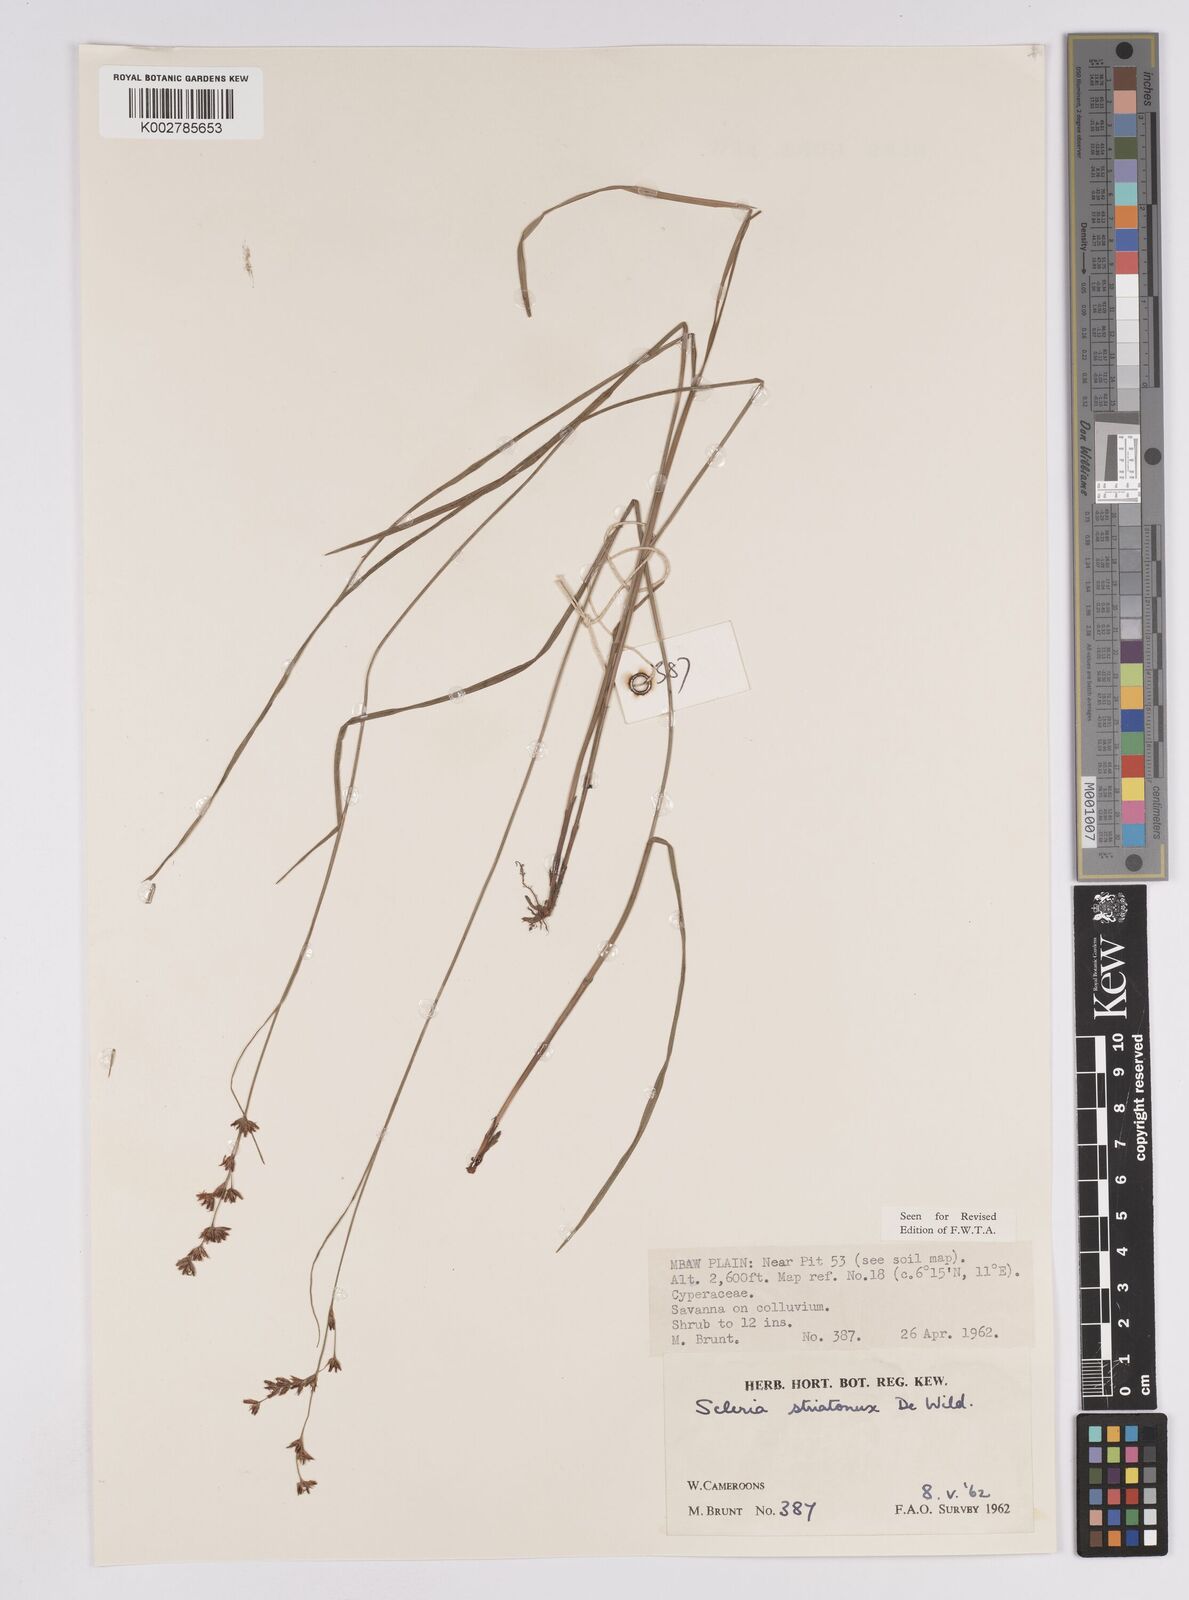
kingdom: Plantae
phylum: Tracheophyta
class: Liliopsida
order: Poales
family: Cyperaceae
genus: Scleria
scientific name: Scleria woodii
